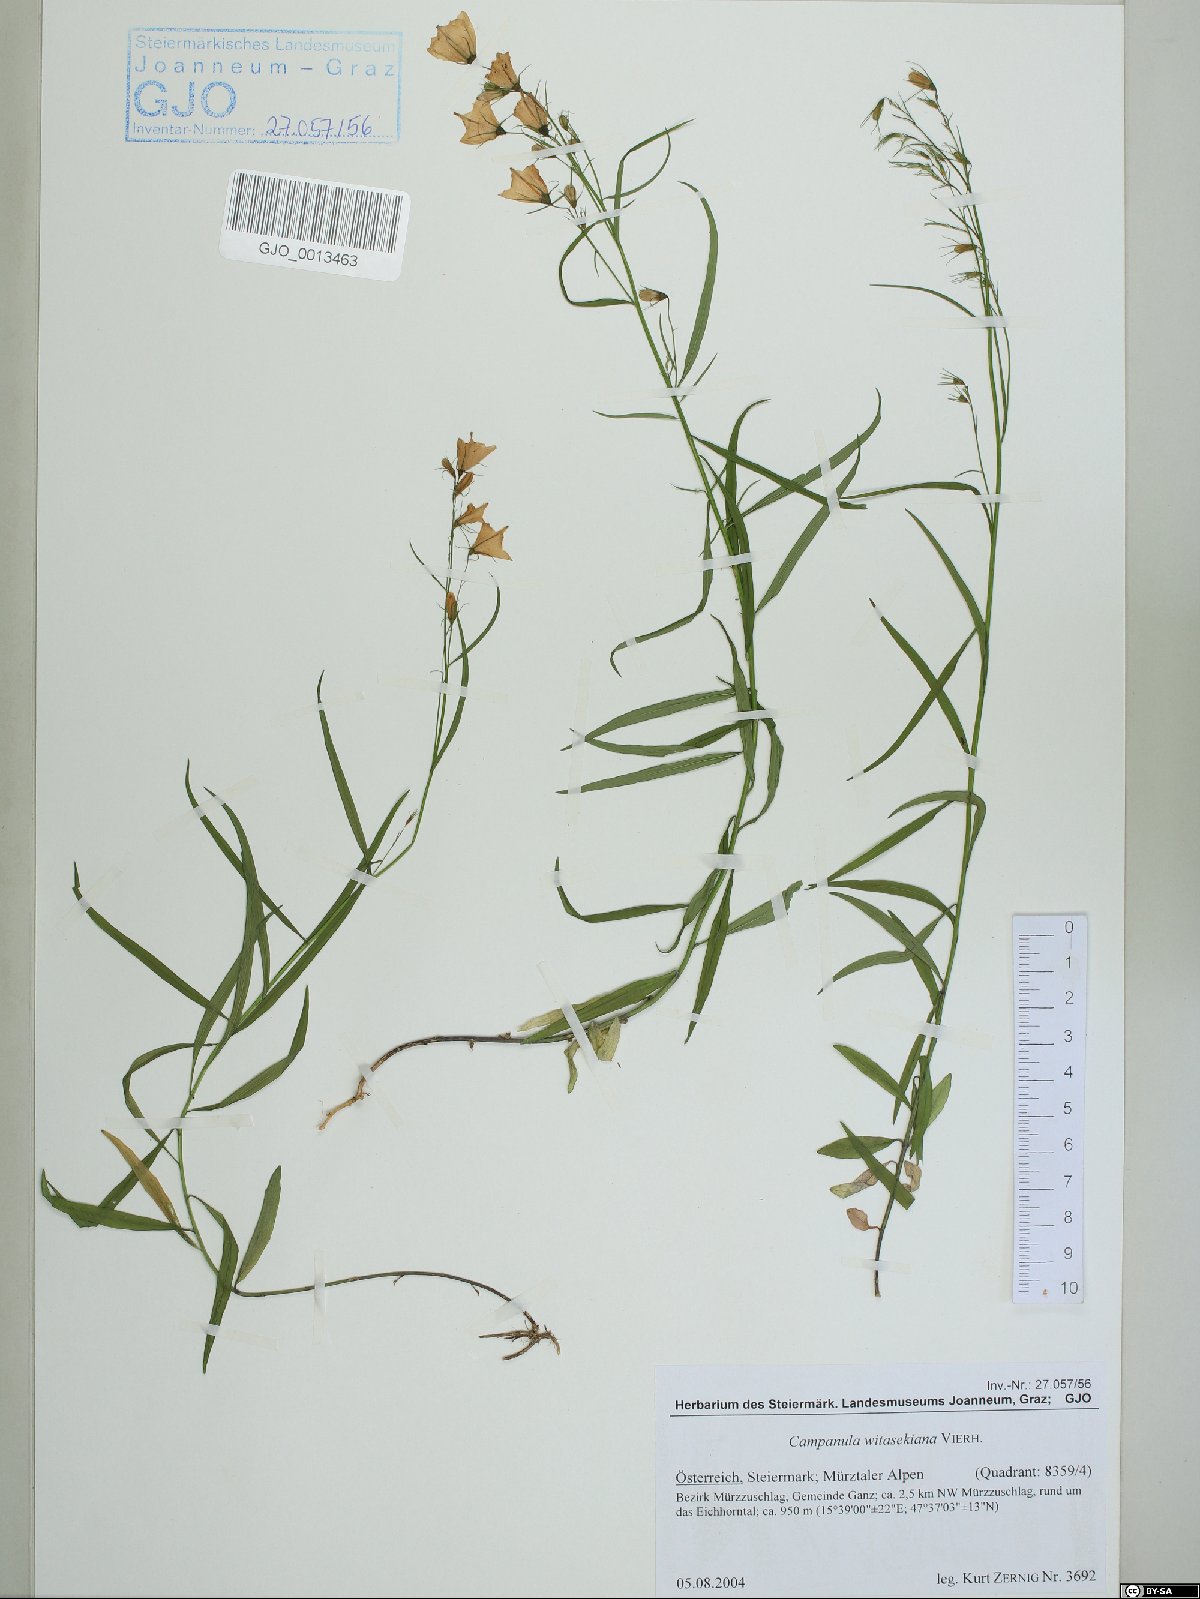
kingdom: Plantae
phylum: Tracheophyta
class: Magnoliopsida
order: Asterales
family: Campanulaceae
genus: Campanula
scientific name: Campanula witasekiana
